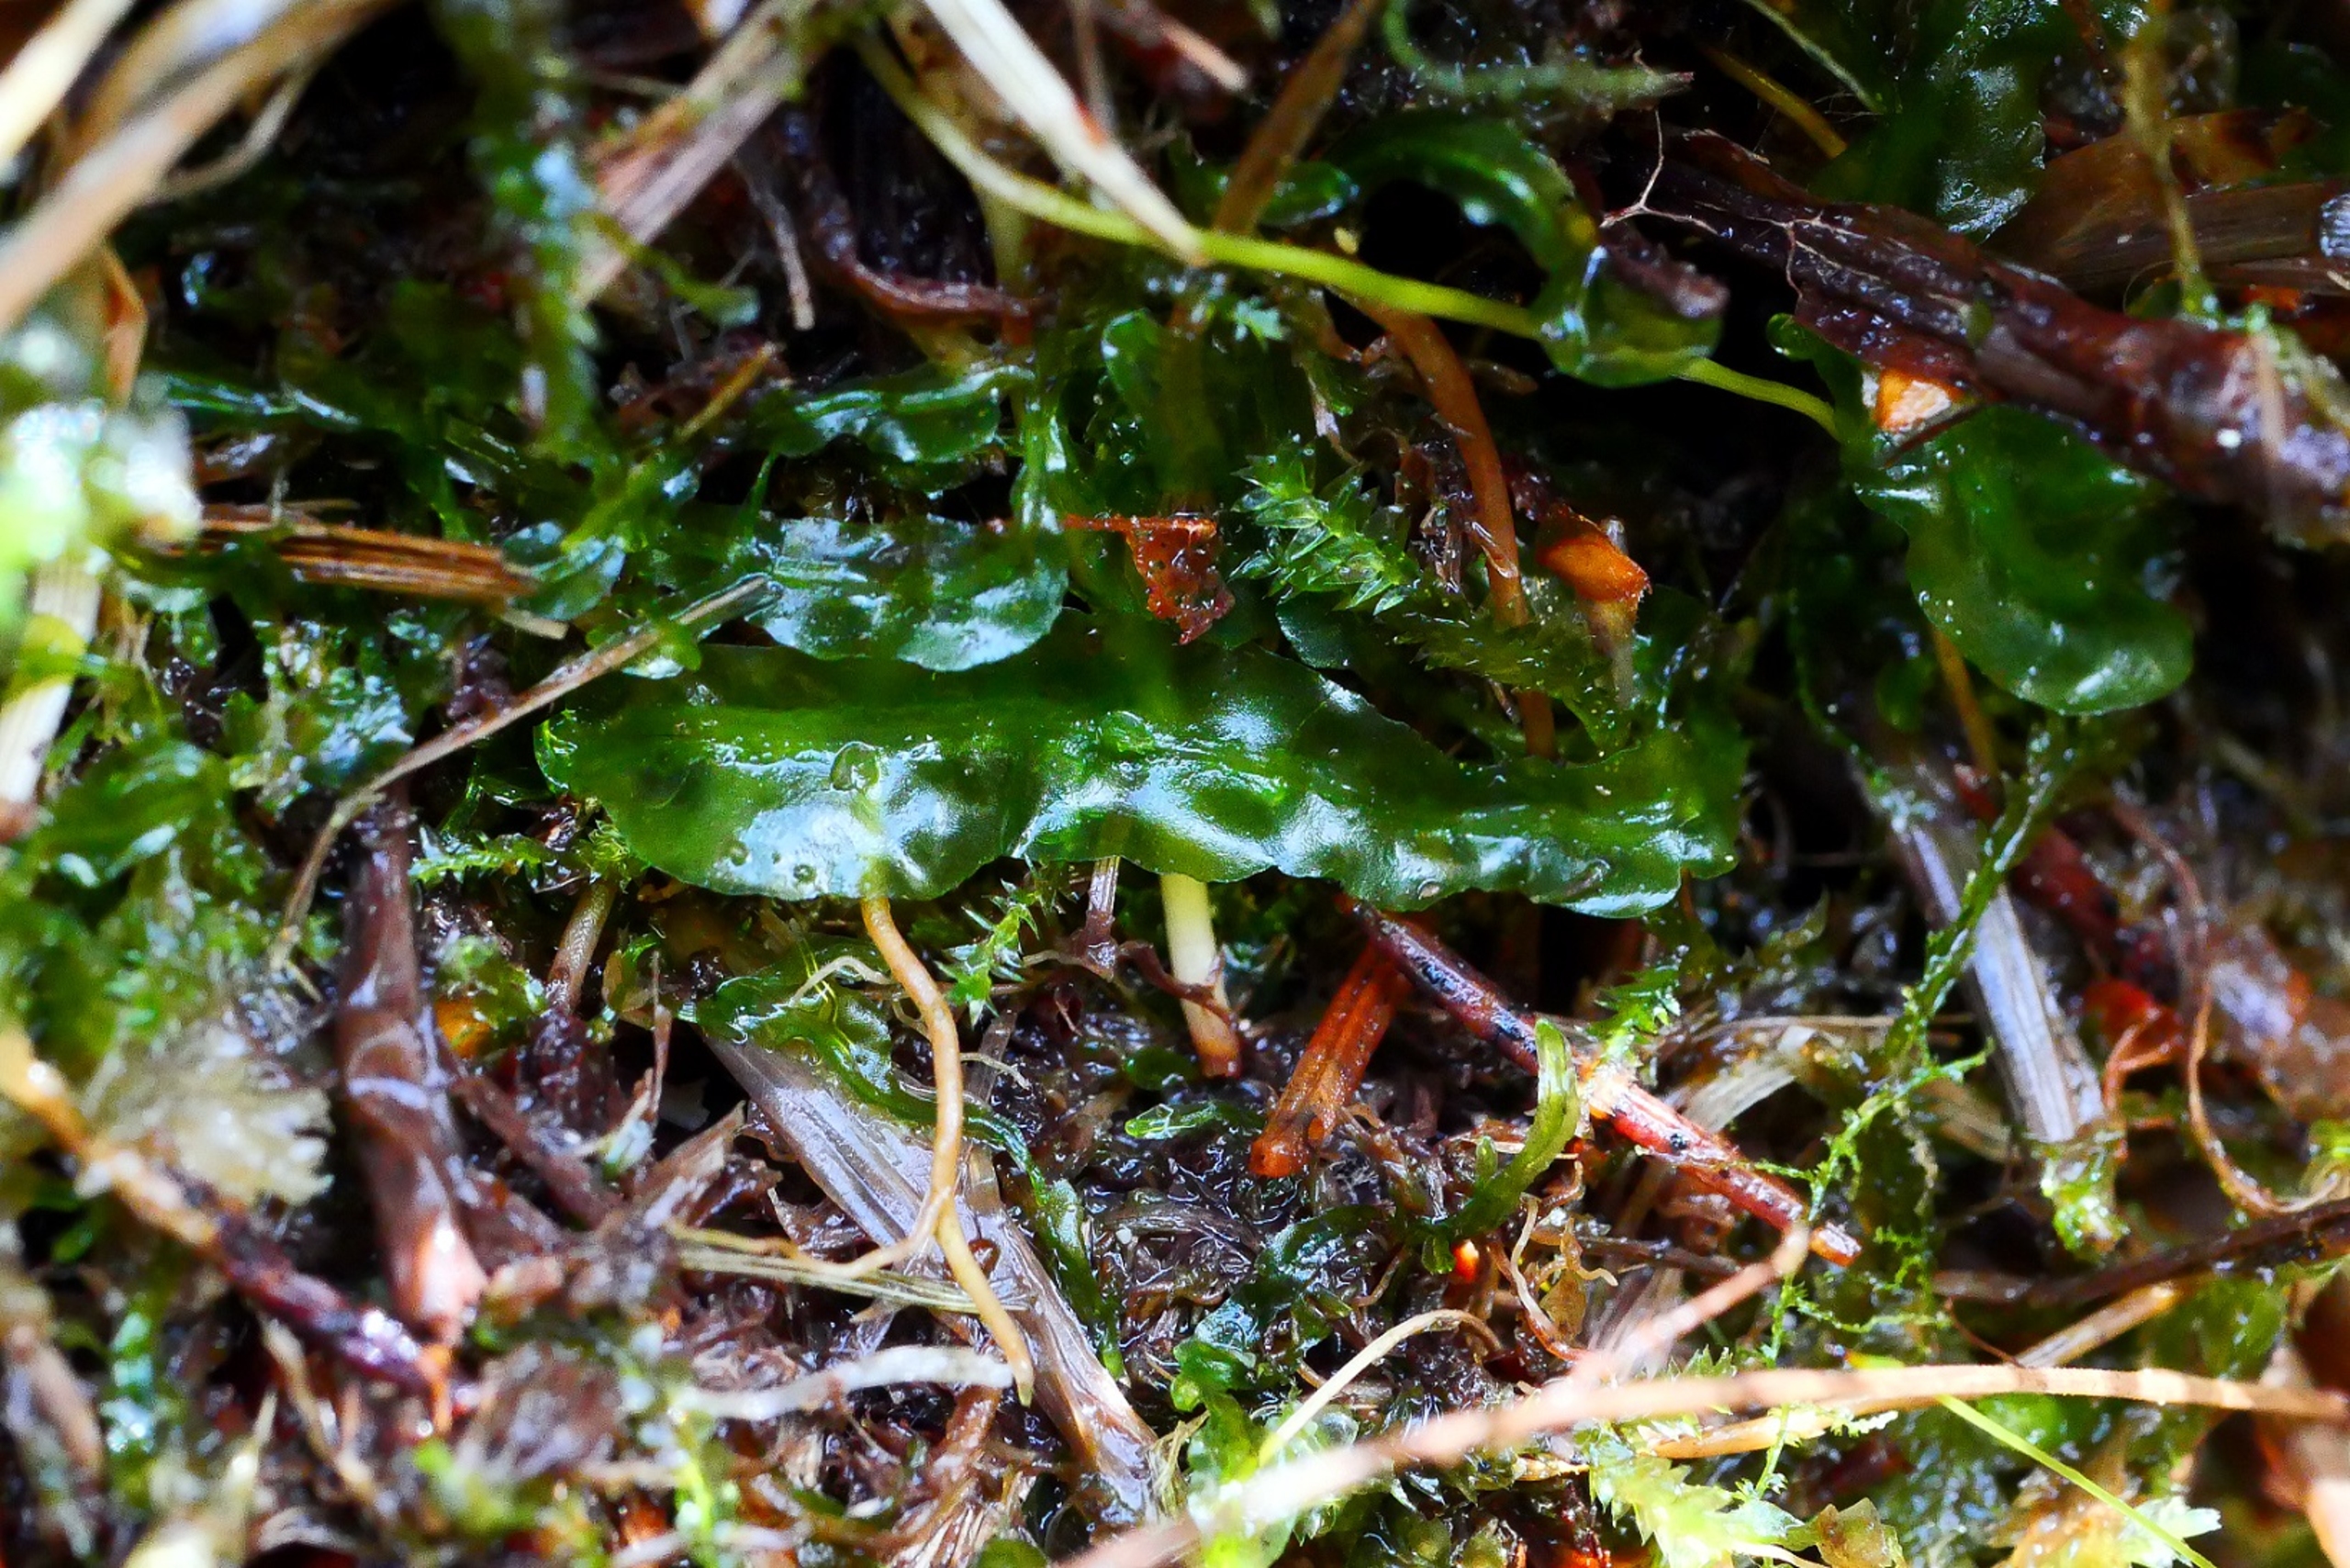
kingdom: Plantae
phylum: Marchantiophyta
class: Jungermanniopsida
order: Pallaviciniales
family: Pallaviciniaceae
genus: Pallavicinia
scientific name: Pallavicinia lyellii
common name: Almindelig strengløv
